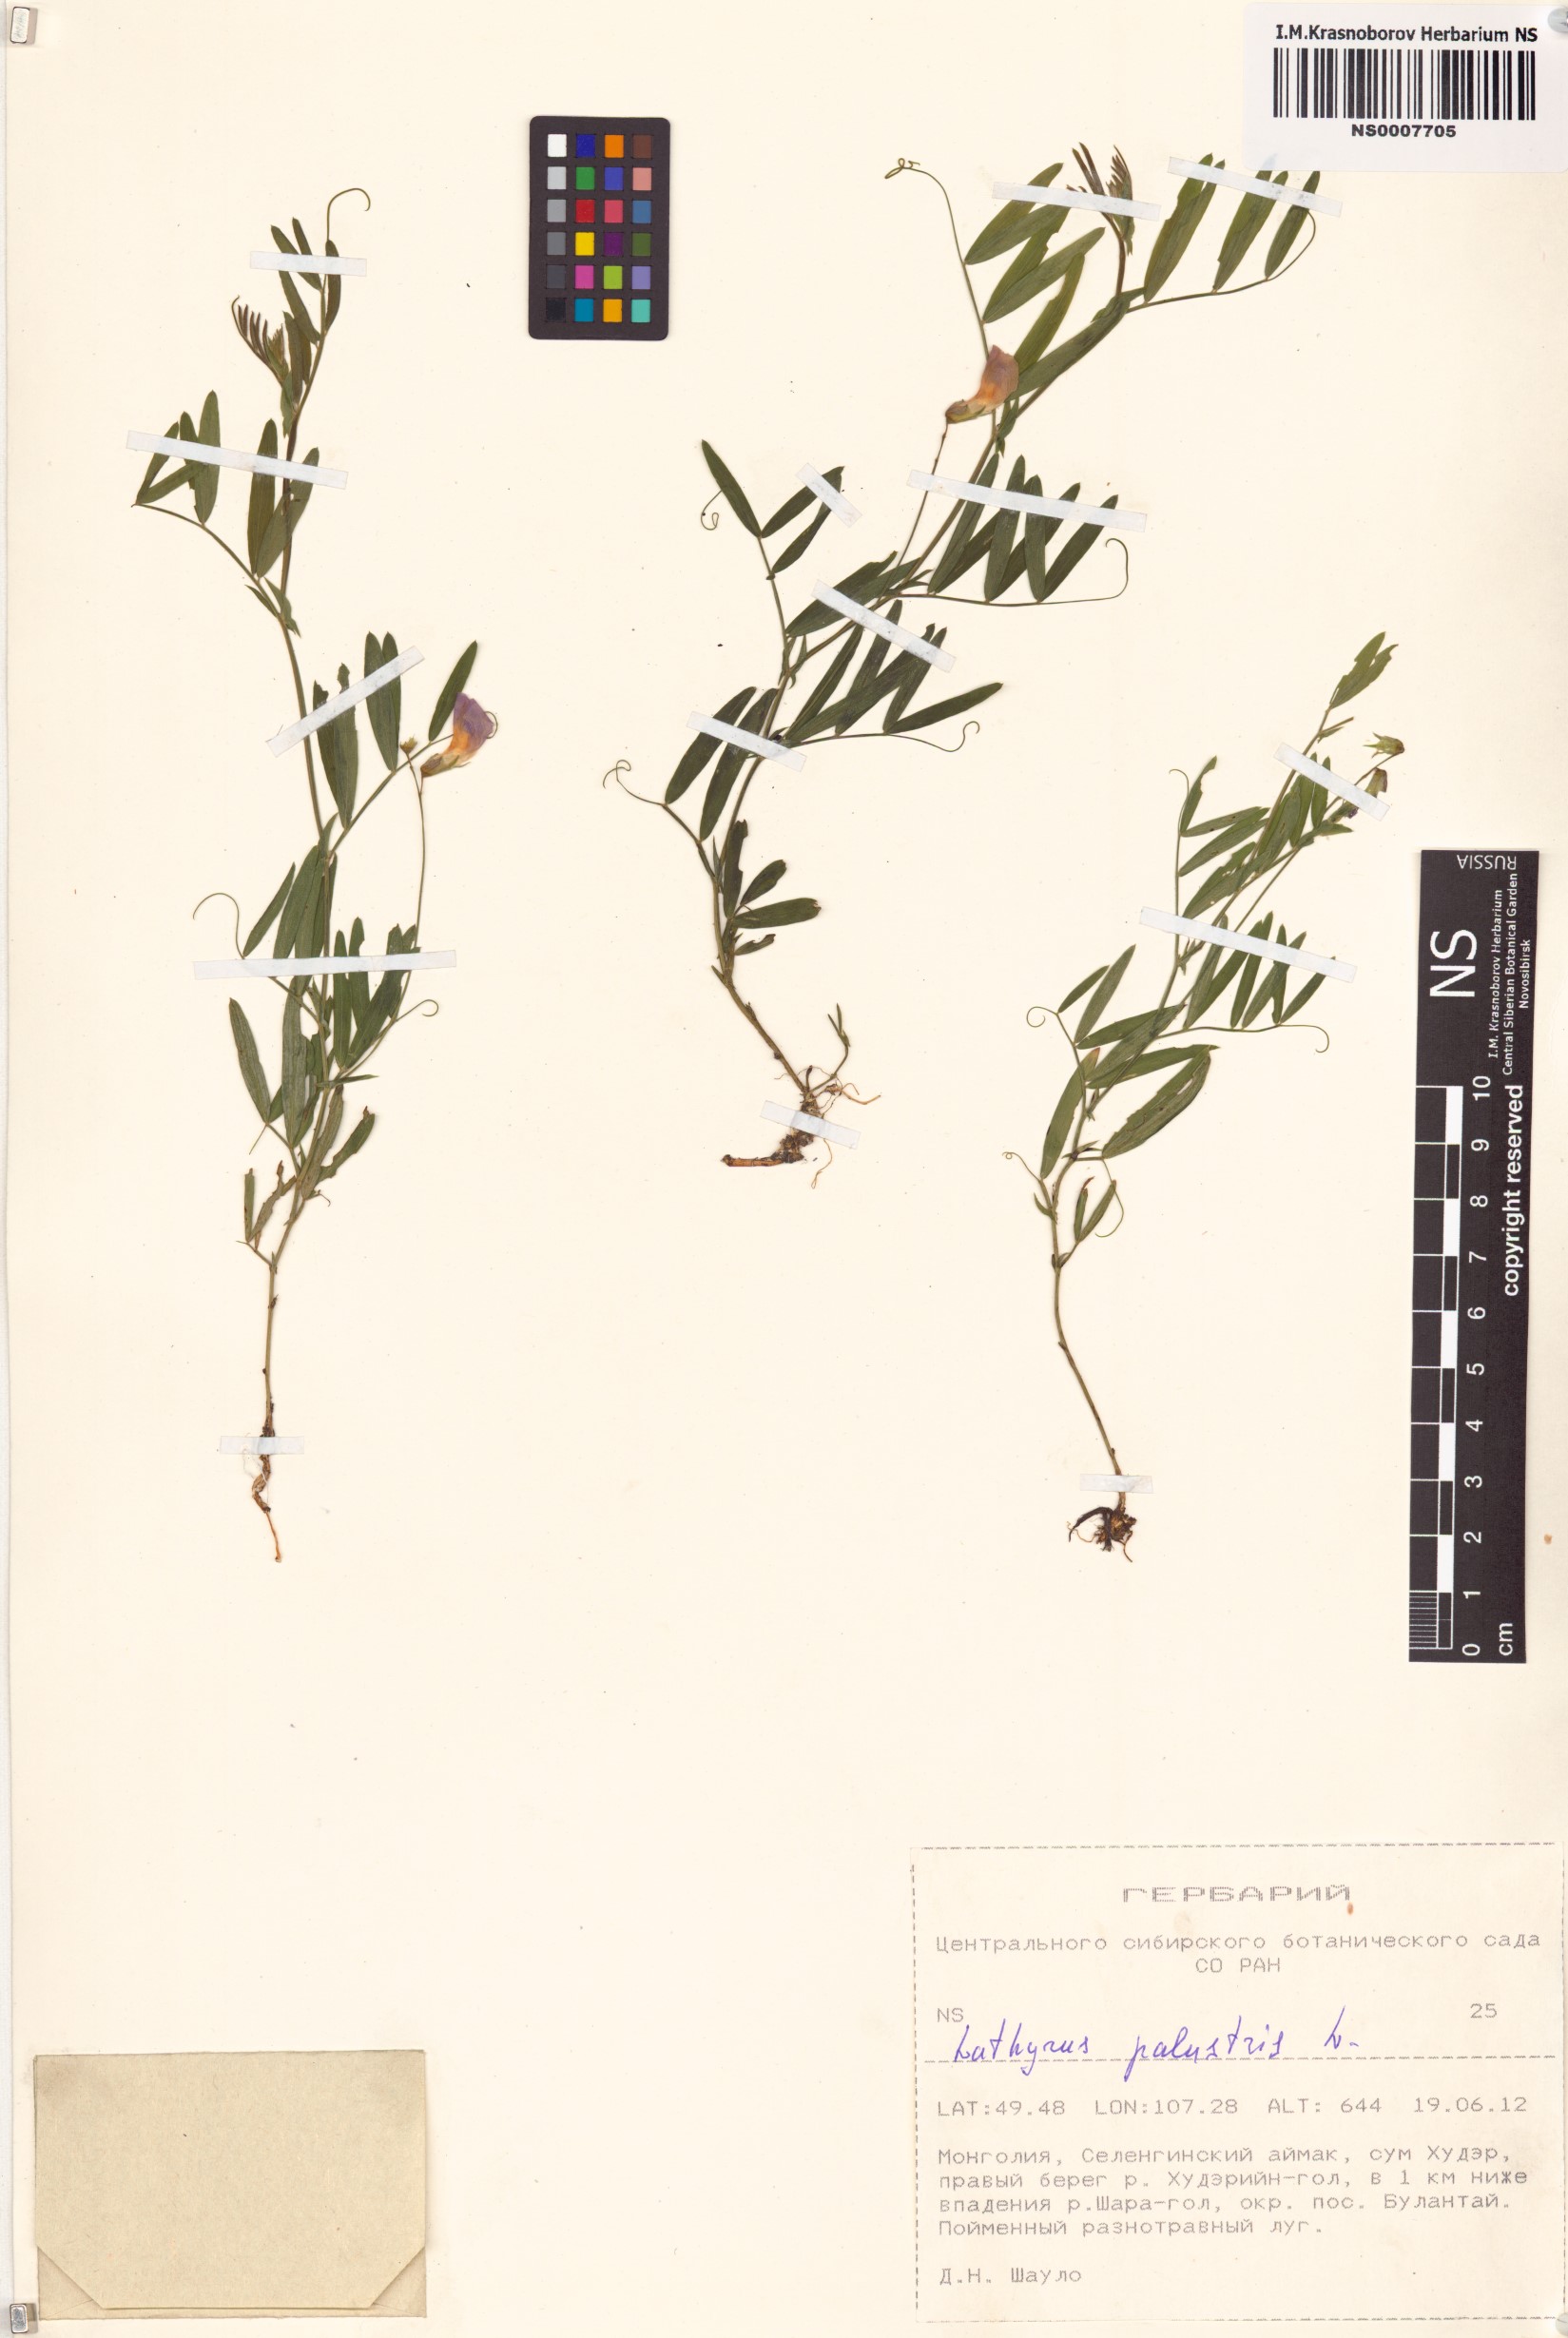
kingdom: Plantae
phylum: Tracheophyta
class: Magnoliopsida
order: Fabales
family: Fabaceae
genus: Lathyrus
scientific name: Lathyrus palustris
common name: Marsh pea
